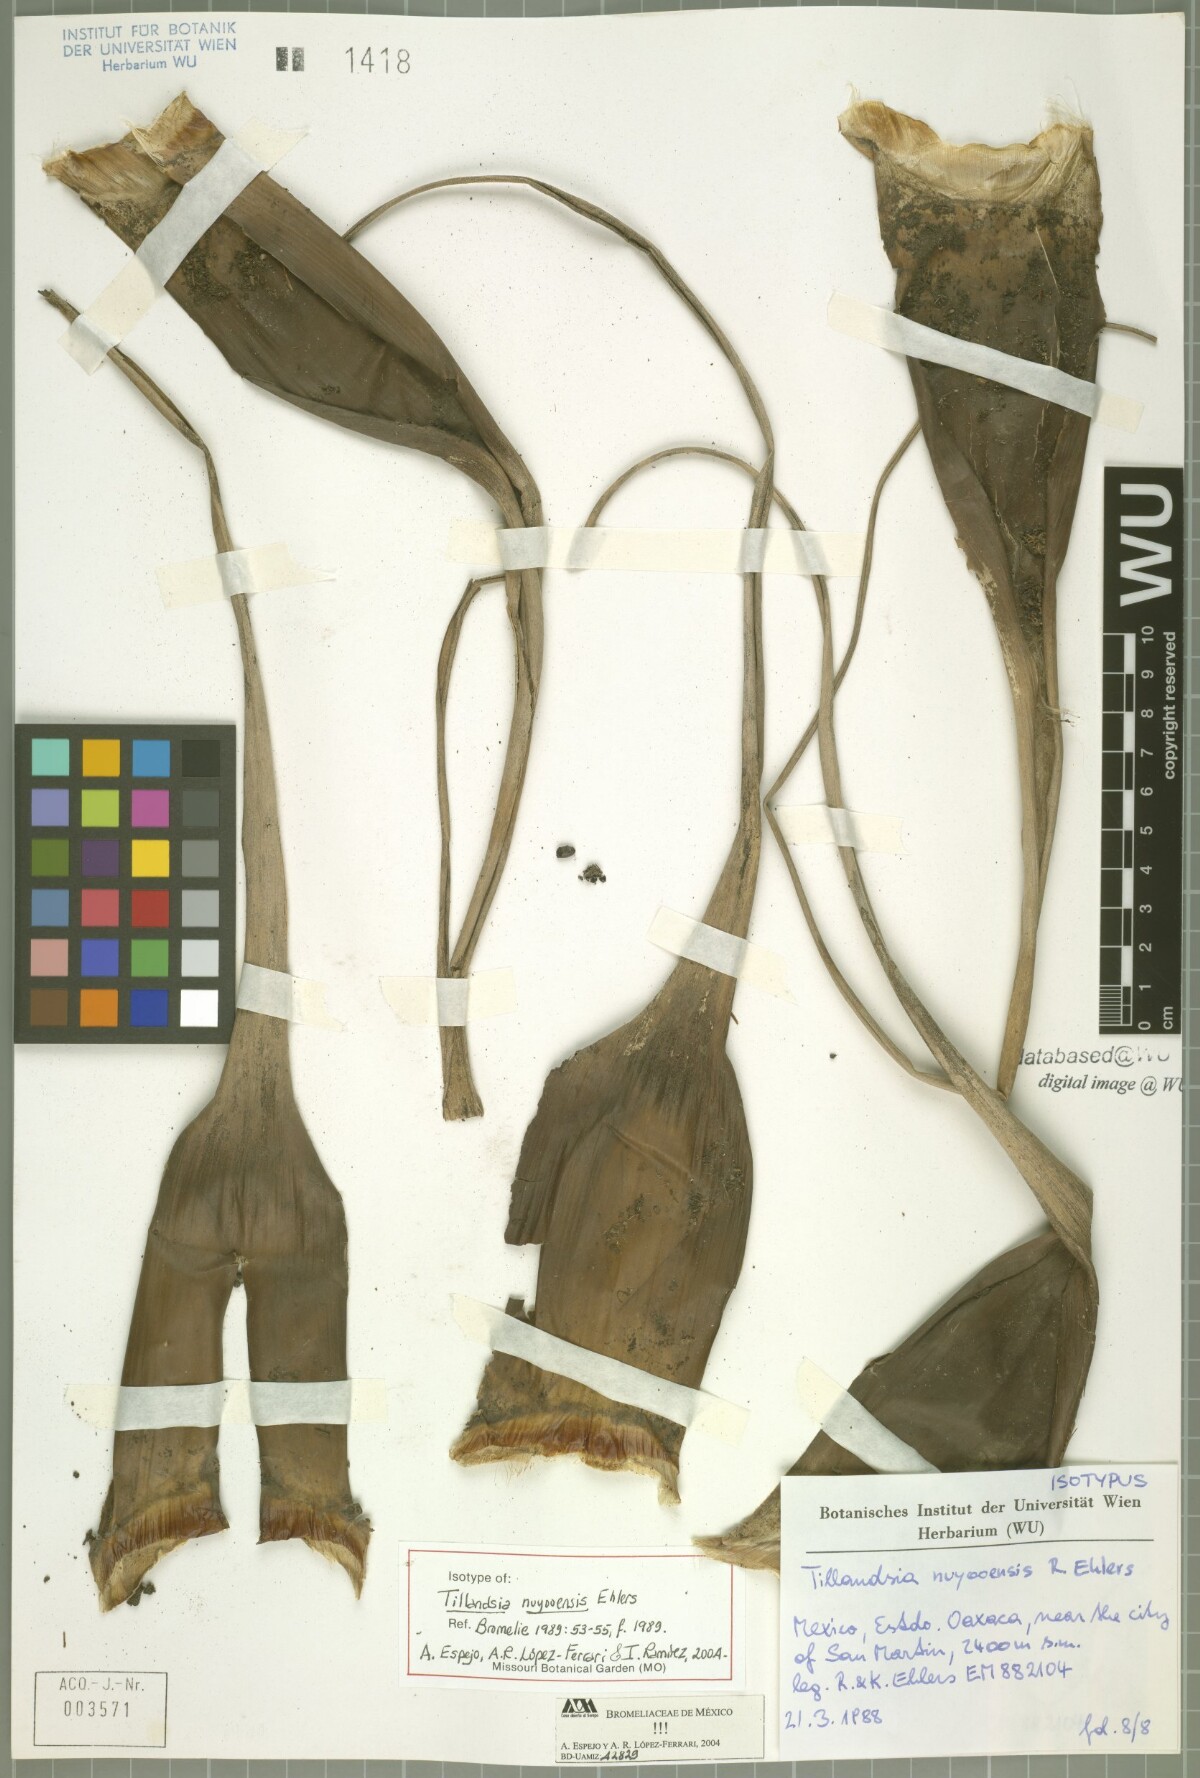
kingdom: Plantae
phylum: Tracheophyta
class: Liliopsida
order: Poales
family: Bromeliaceae
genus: Tillandsia
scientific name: Tillandsia nuyooensis
